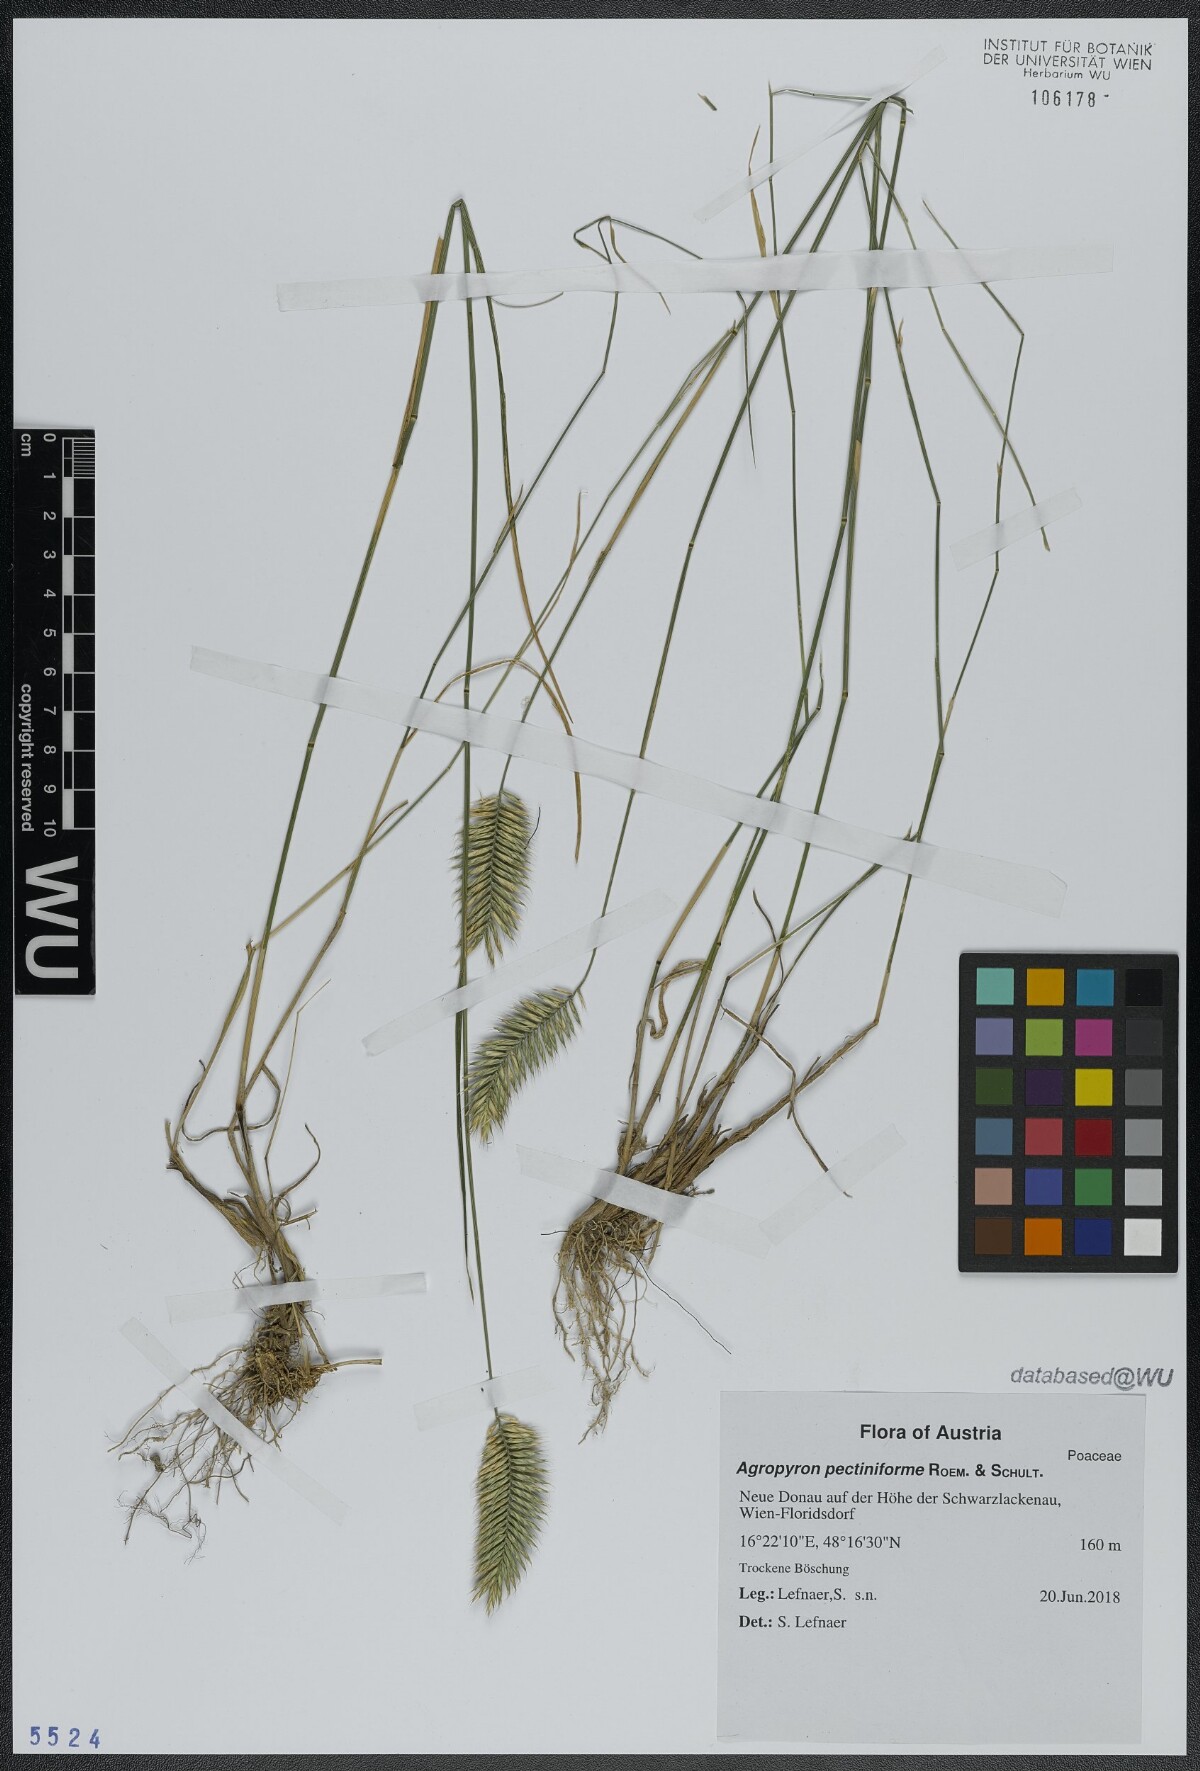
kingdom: Plantae
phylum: Tracheophyta
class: Liliopsida
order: Poales
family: Poaceae
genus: Agropyron
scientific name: Agropyron cristatum
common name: Crested wheatgrass
